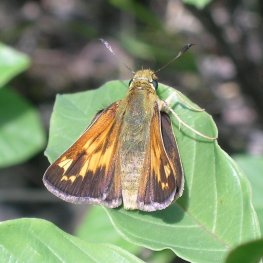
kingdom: Animalia
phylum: Arthropoda
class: Insecta
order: Lepidoptera
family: Hesperiidae
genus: Hesperia
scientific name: Hesperia sassacus
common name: Sassacus Skipper
